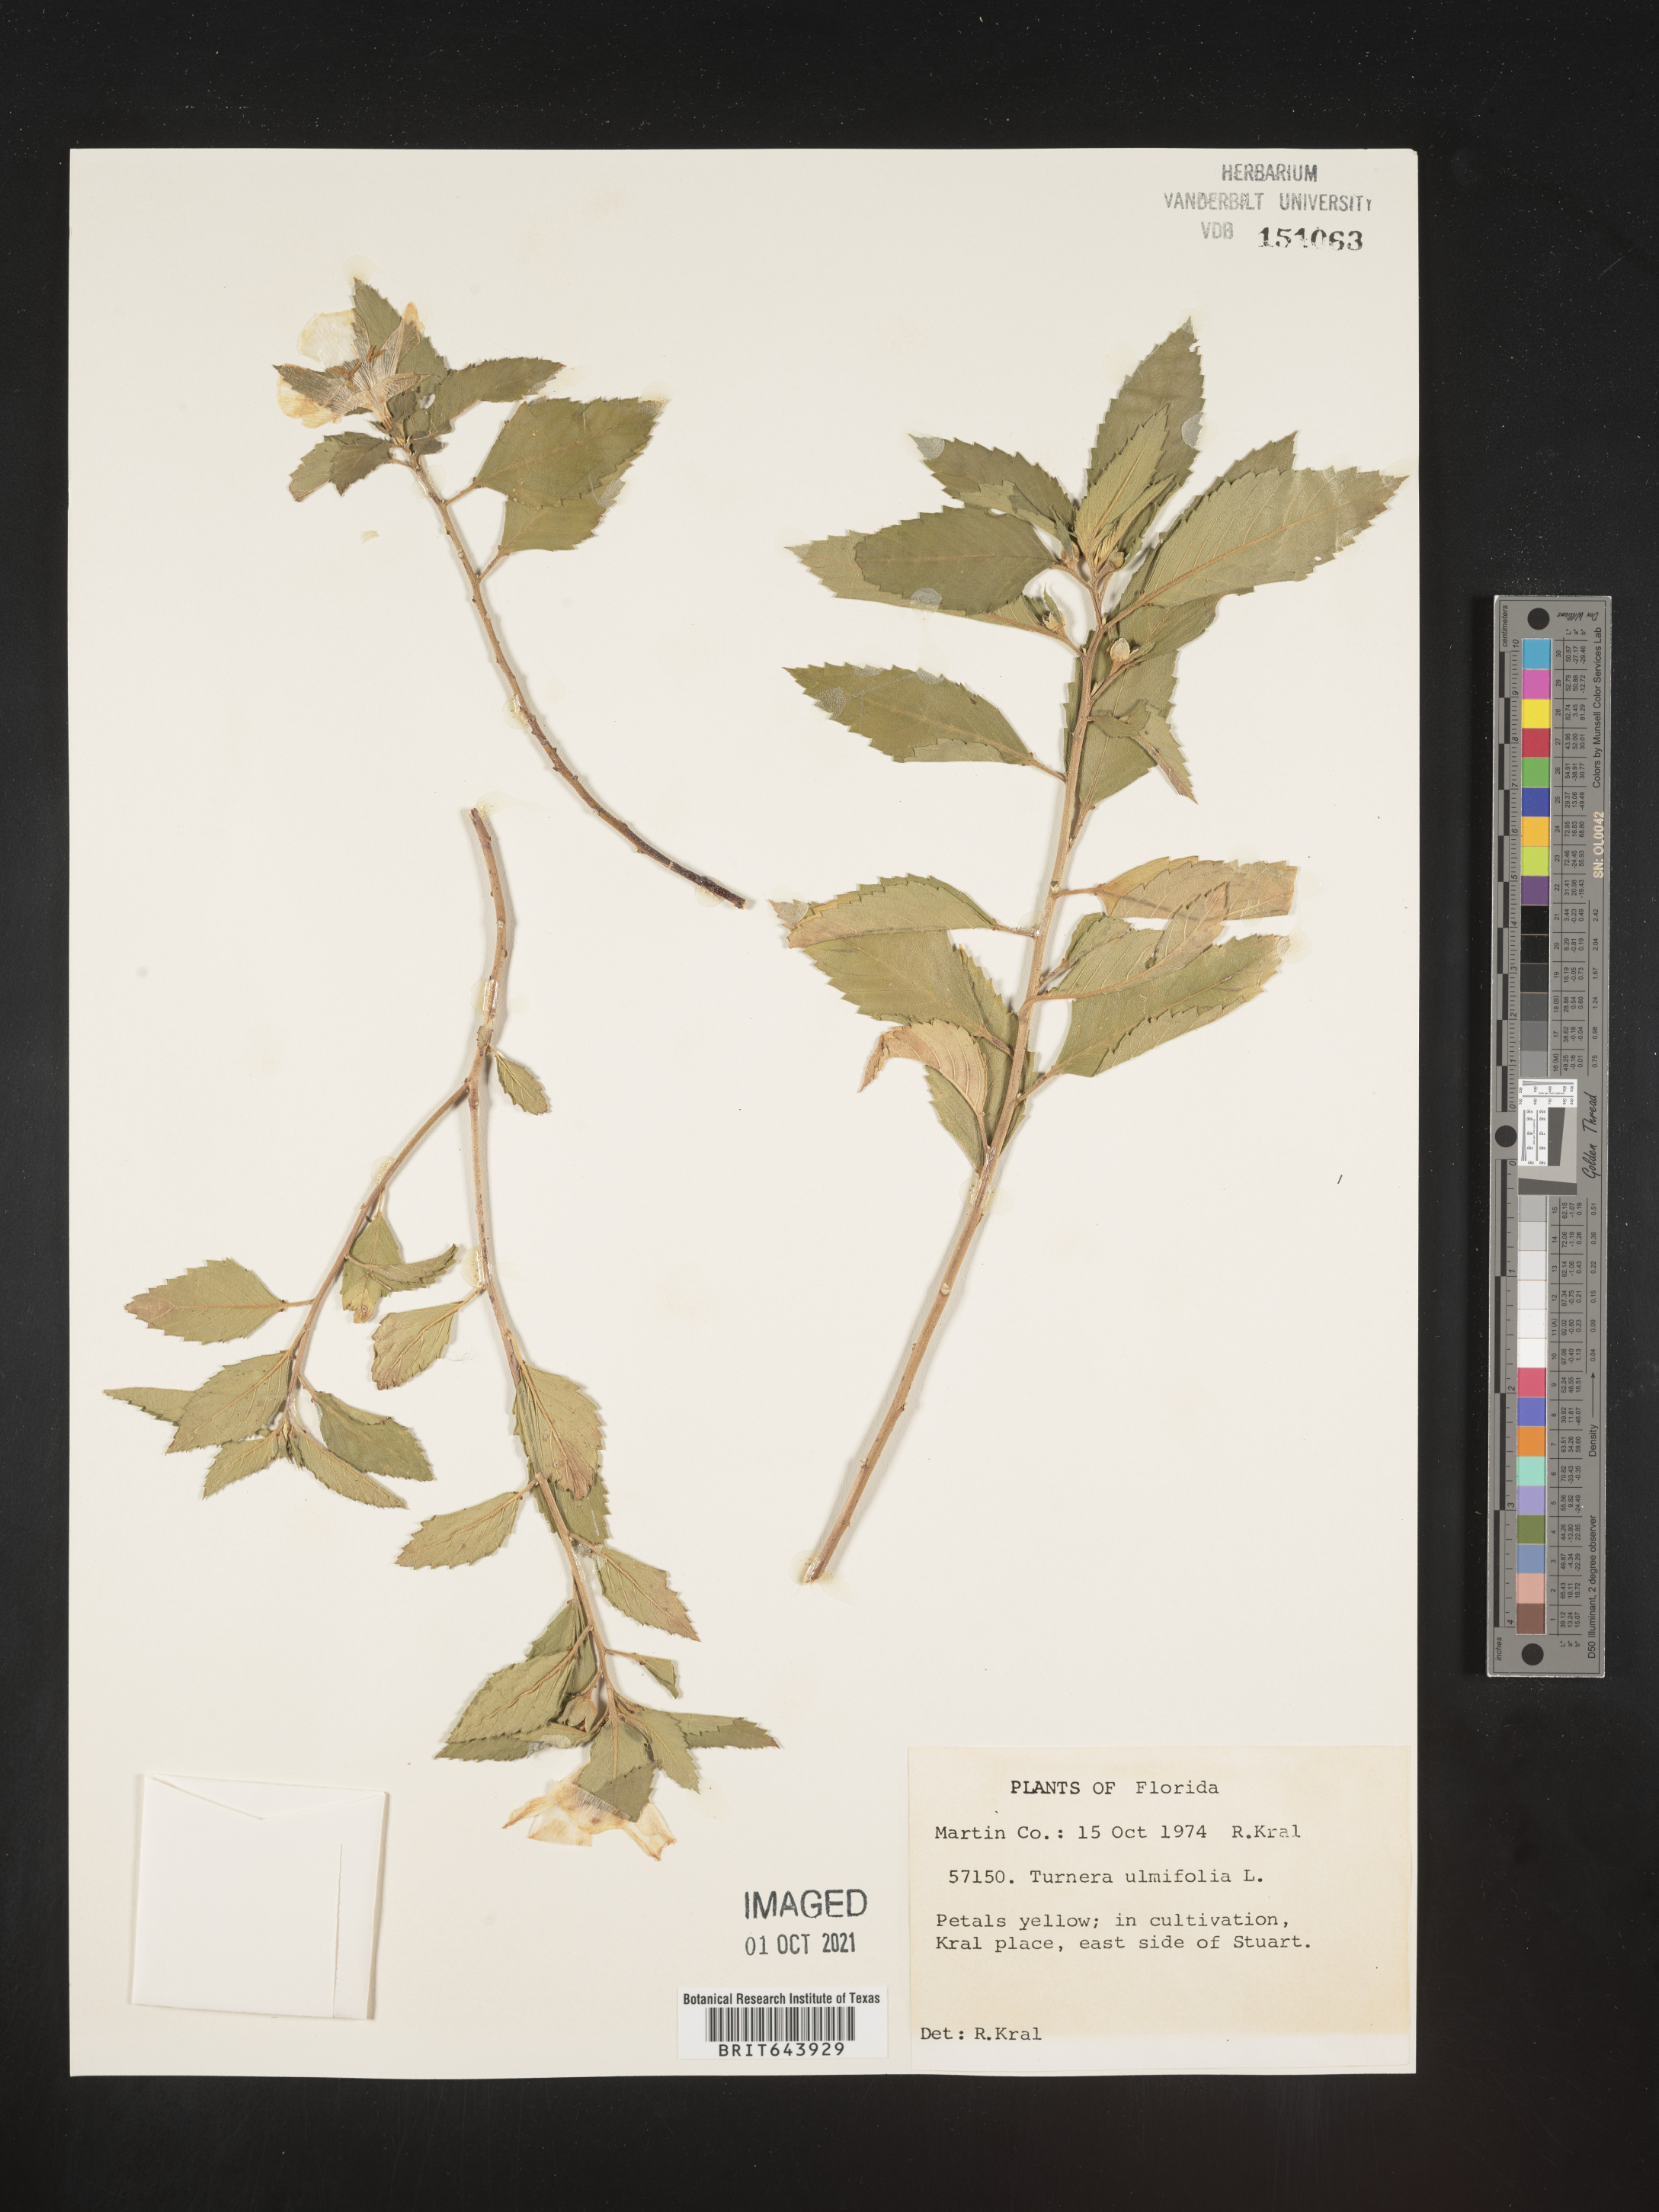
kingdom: Plantae
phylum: Tracheophyta
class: Magnoliopsida
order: Malpighiales
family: Turneraceae
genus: Turnera
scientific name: Turnera
